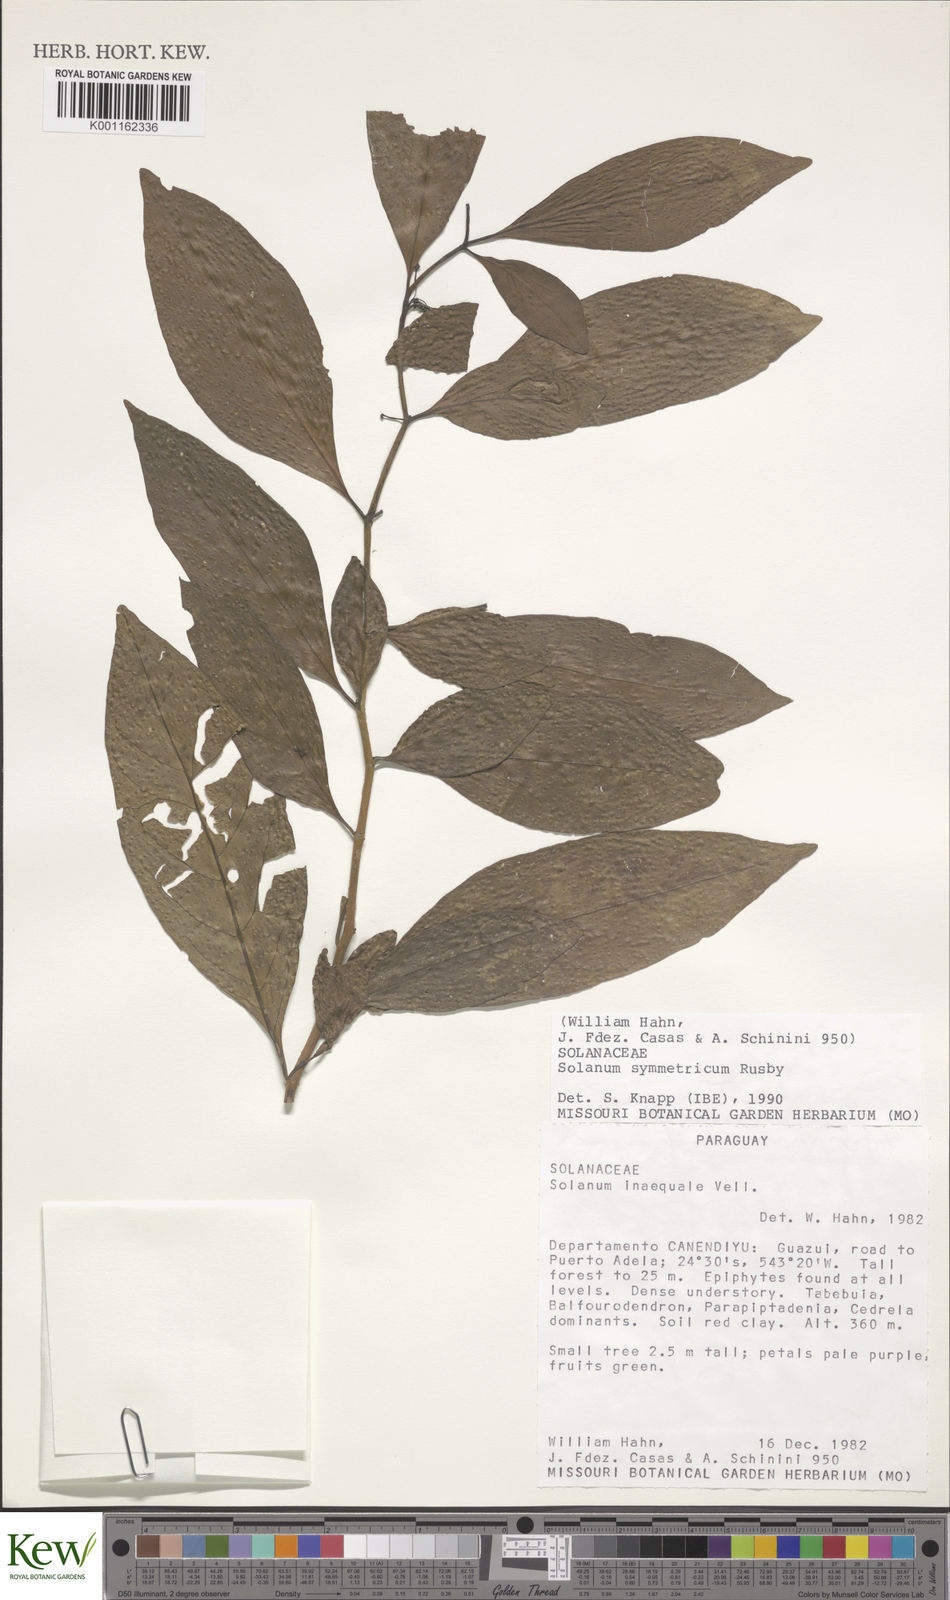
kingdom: Plantae
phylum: Tracheophyta
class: Magnoliopsida
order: Solanales
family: Solanaceae
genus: Solanum
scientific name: Solanum symmetricum
